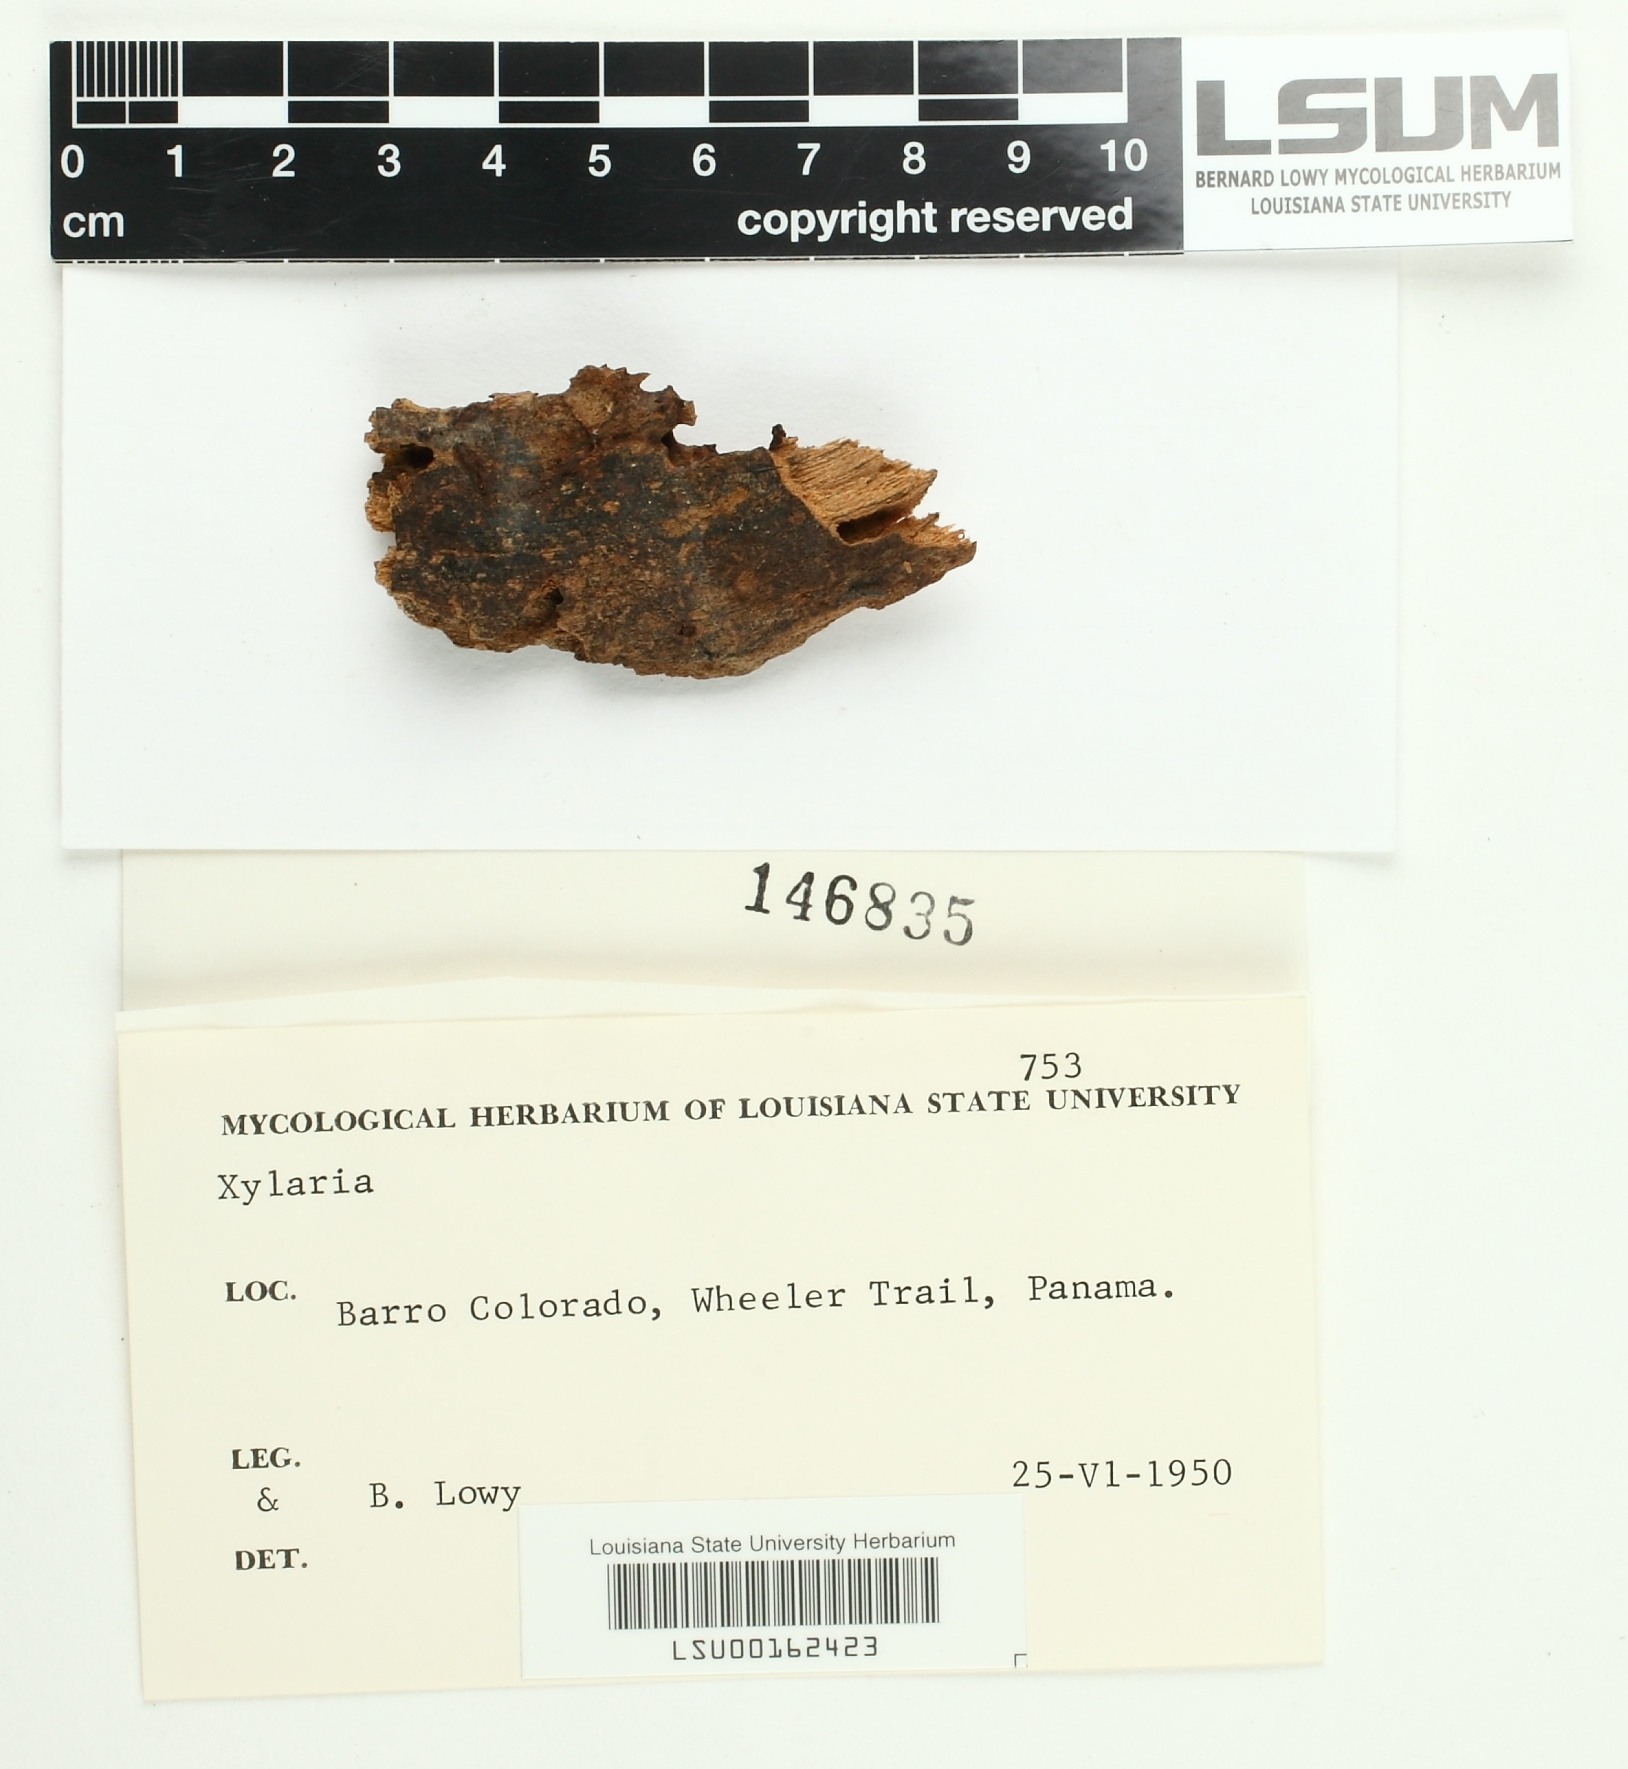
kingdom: Fungi
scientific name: Fungi
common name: Fungi
